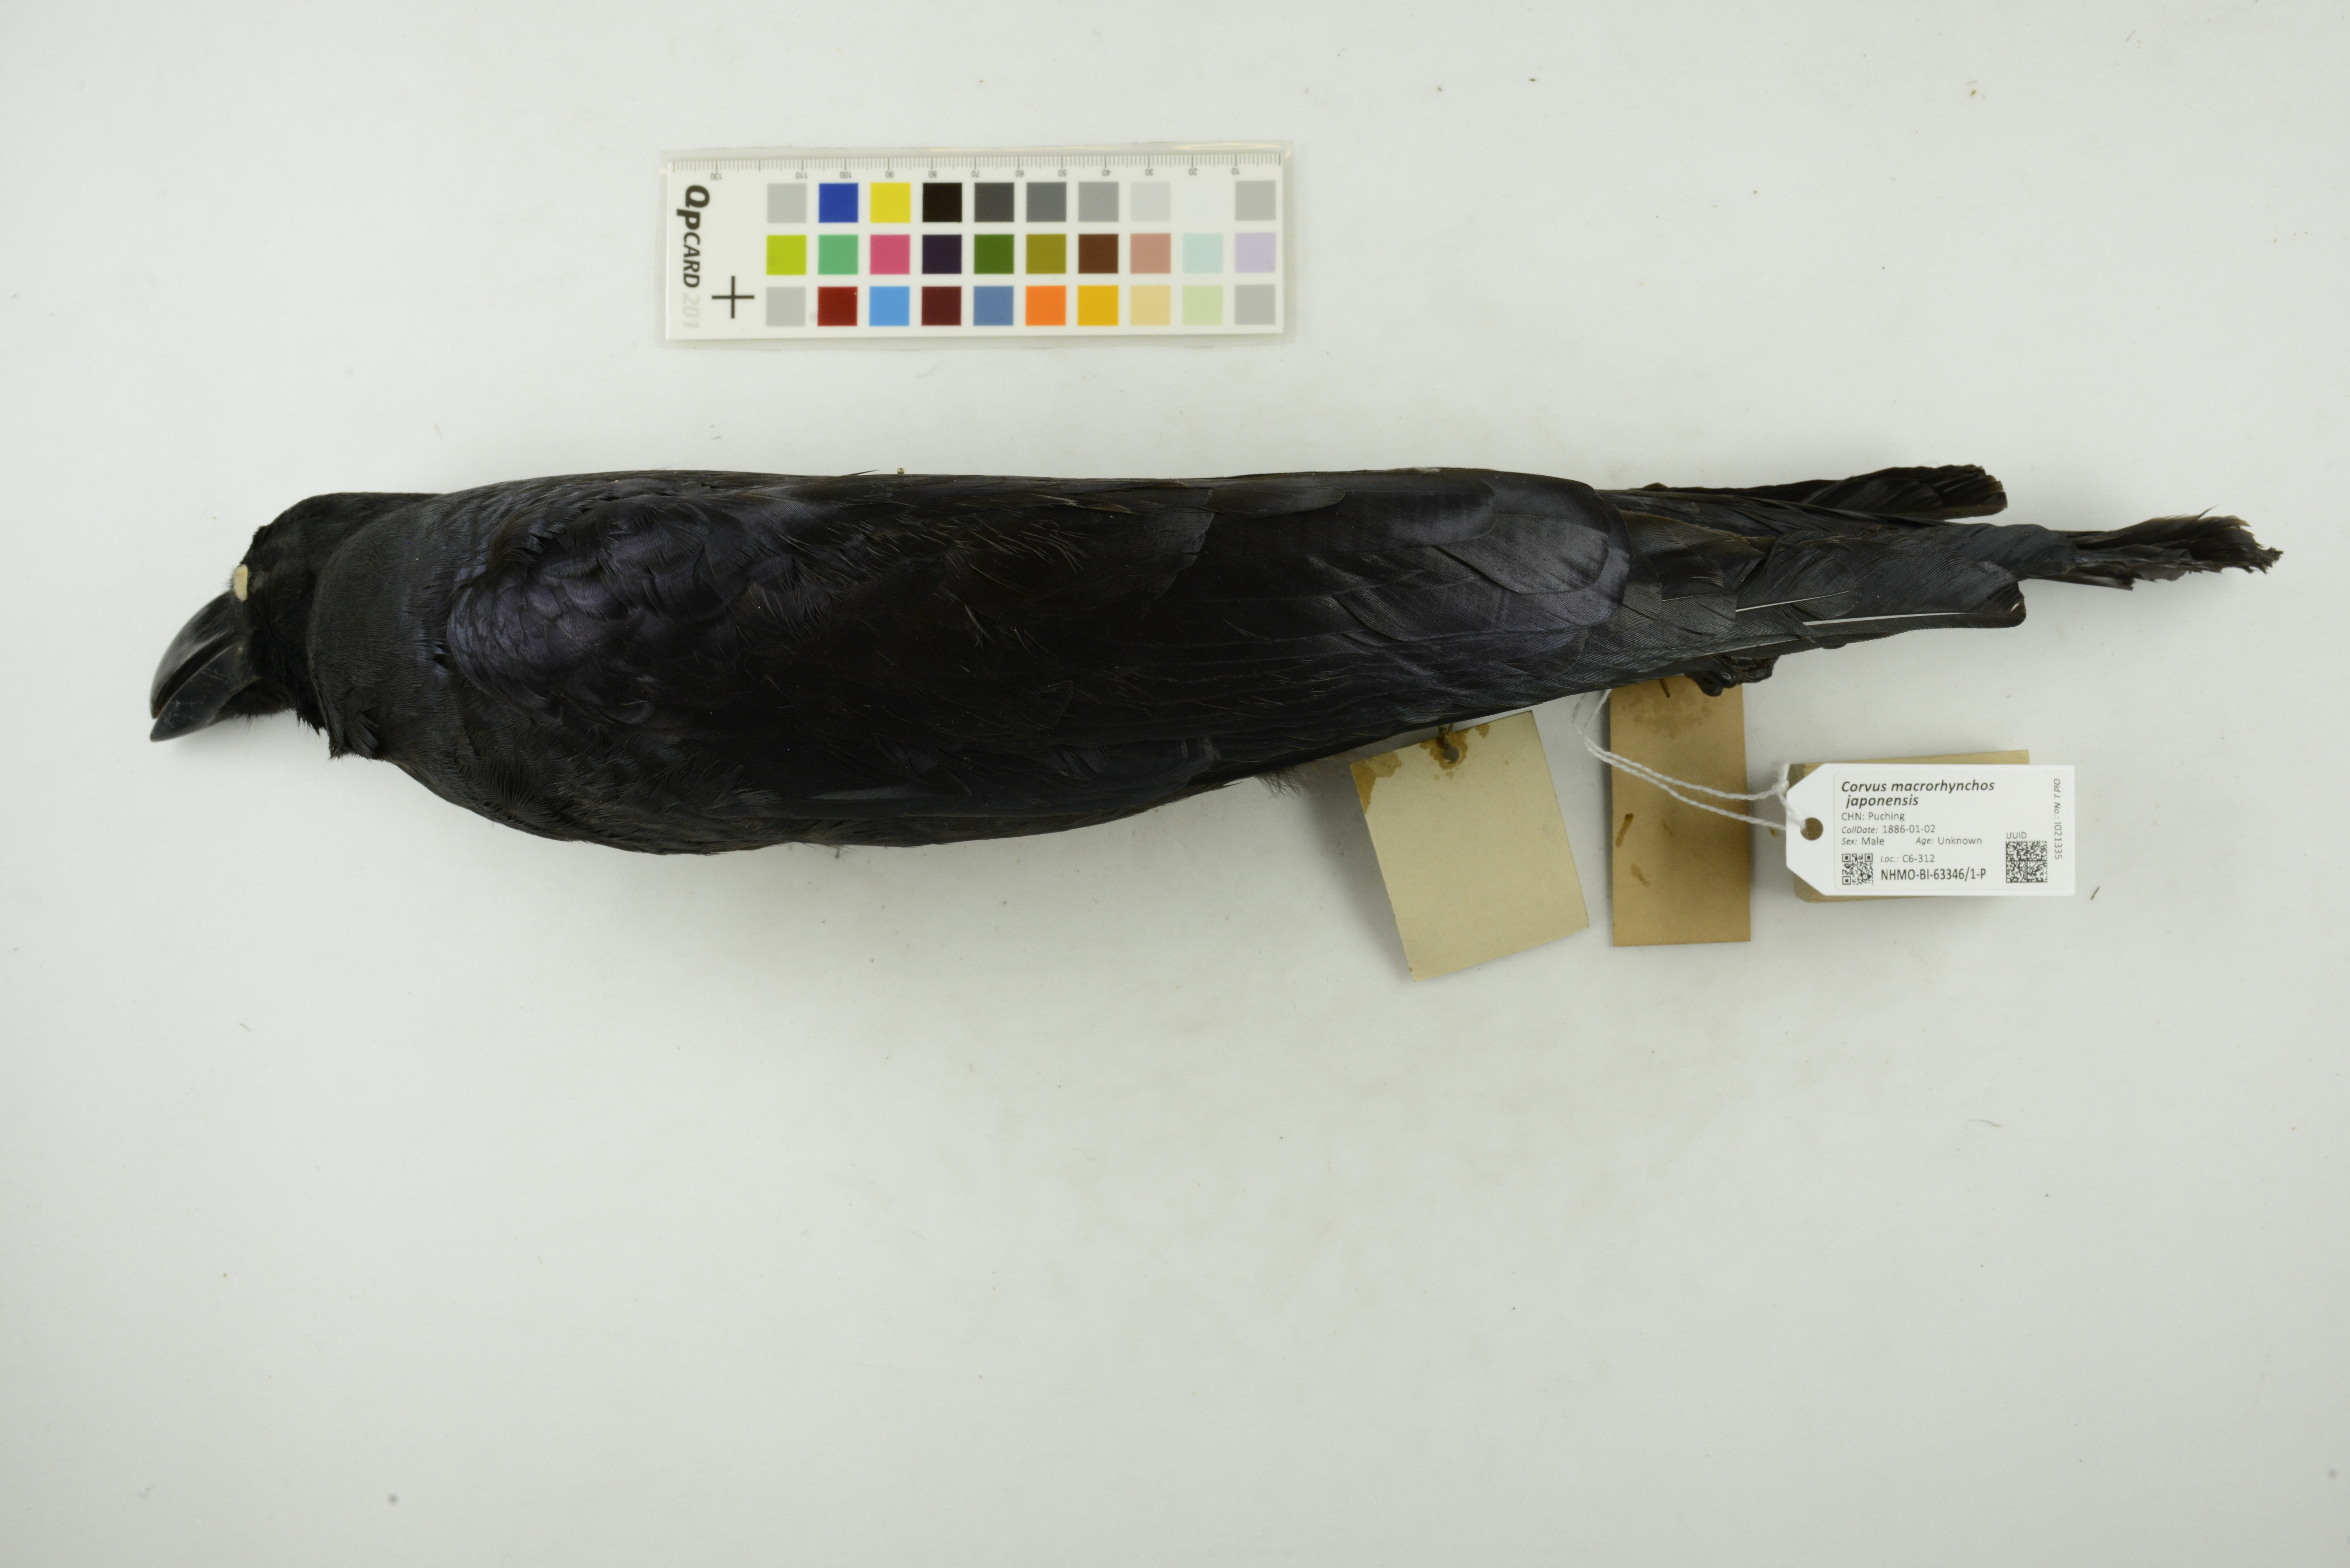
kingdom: Animalia
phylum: Chordata
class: Aves
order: Passeriformes
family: Corvidae
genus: Corvus
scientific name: Corvus macrorhynchos
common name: Large-billed crow
